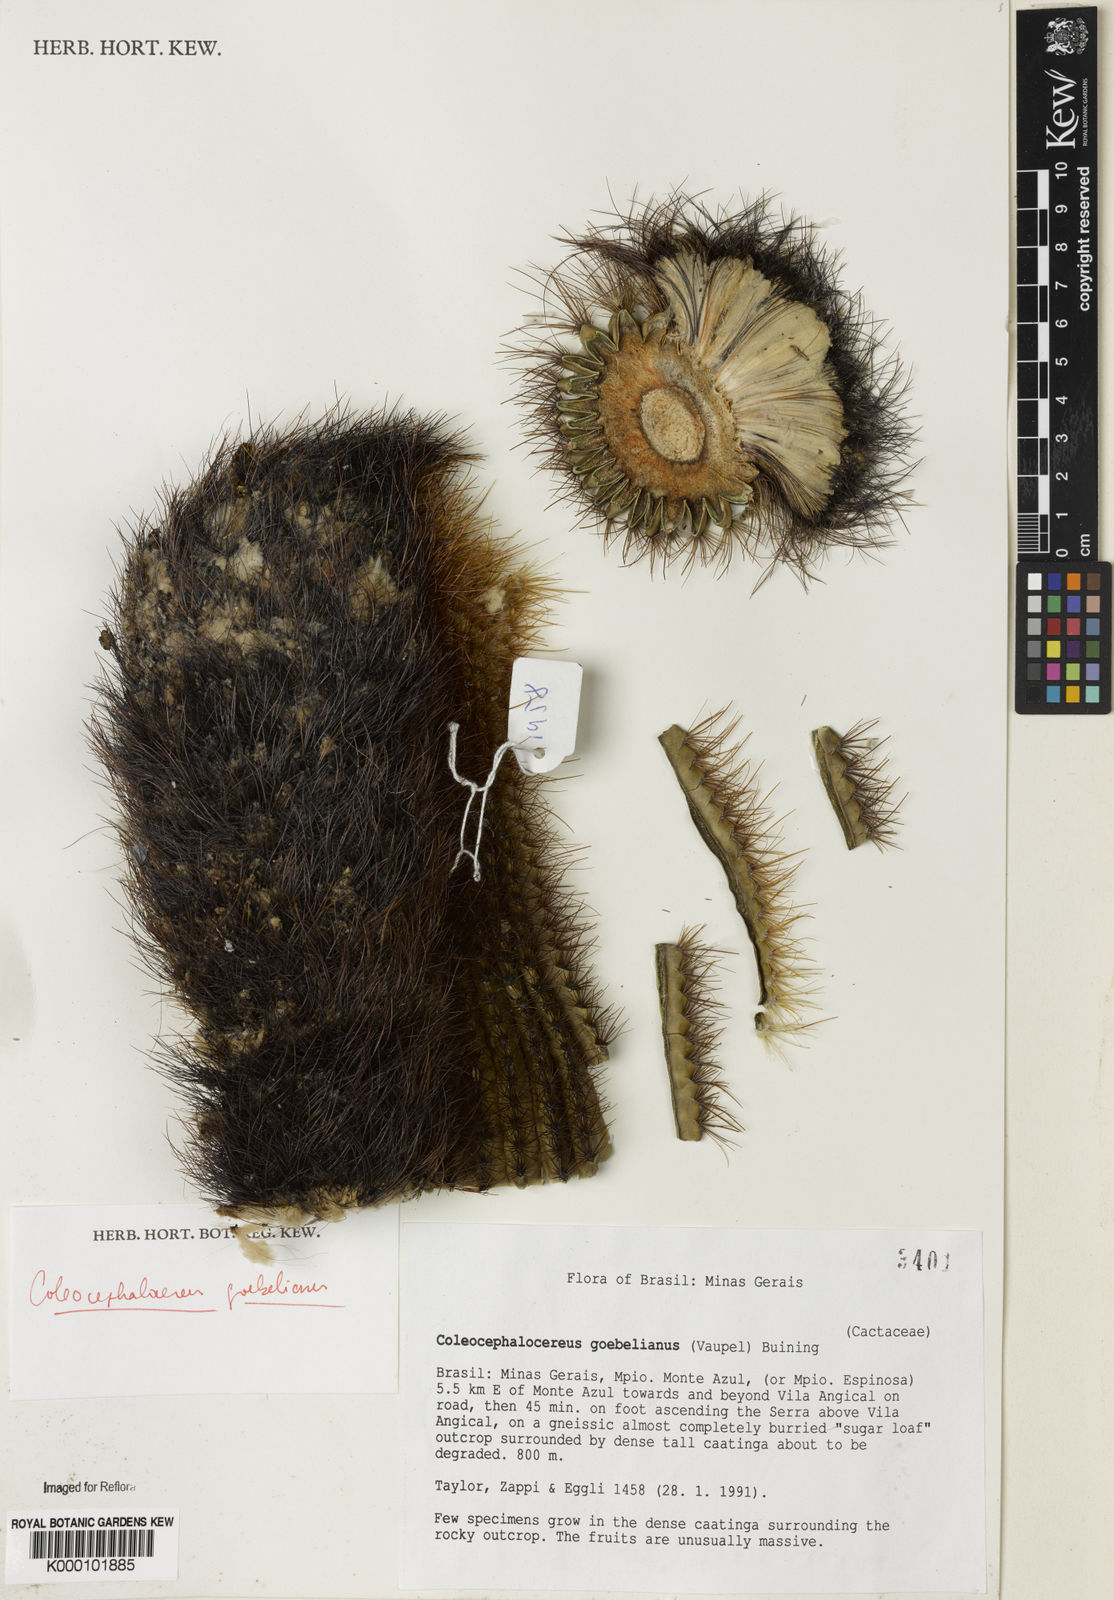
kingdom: Plantae
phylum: Tracheophyta
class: Magnoliopsida
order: Caryophyllales
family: Cactaceae
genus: Coleocephalocereus
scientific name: Coleocephalocereus goebelianus
